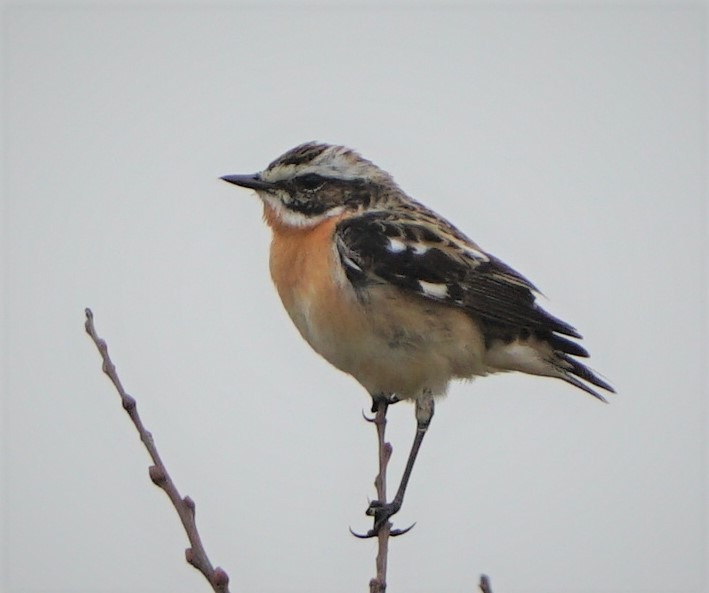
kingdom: Animalia
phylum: Chordata
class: Aves
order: Passeriformes
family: Muscicapidae
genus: Saxicola
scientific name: Saxicola rubetra
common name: Bynkefugl
